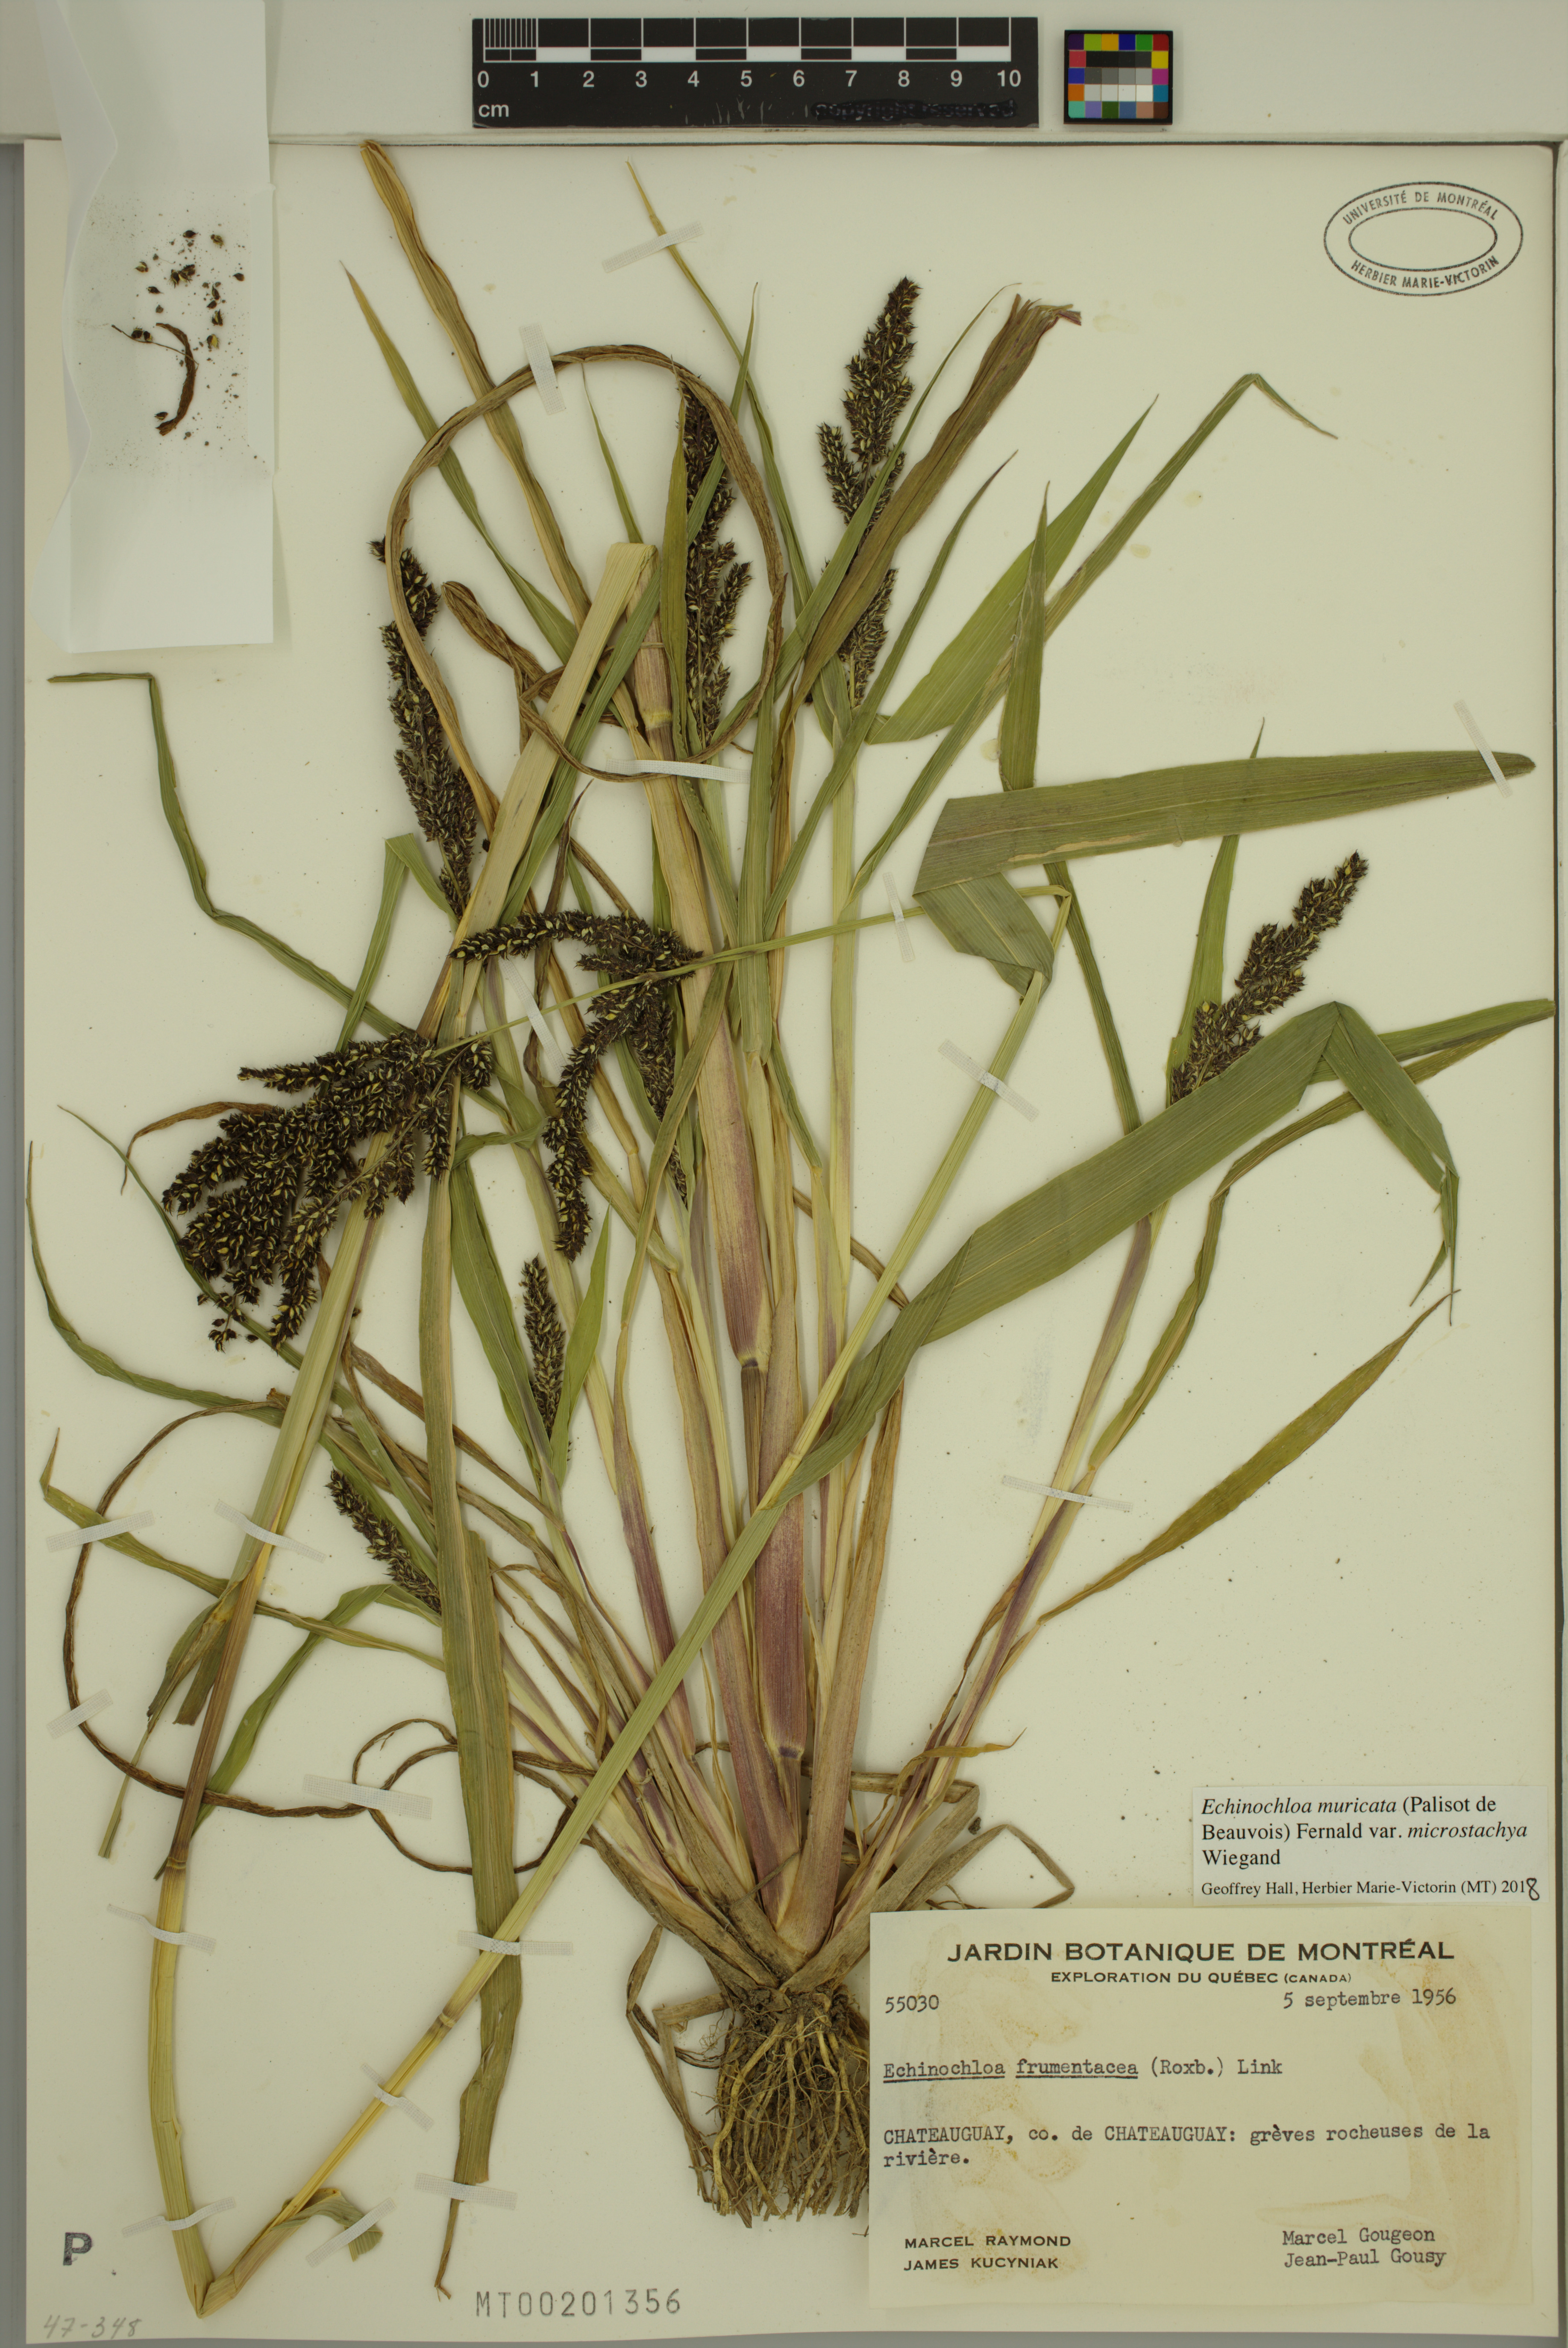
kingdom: Plantae
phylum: Tracheophyta
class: Liliopsida
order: Poales
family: Poaceae
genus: Echinochloa
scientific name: Echinochloa muricata
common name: American barnyard grass
